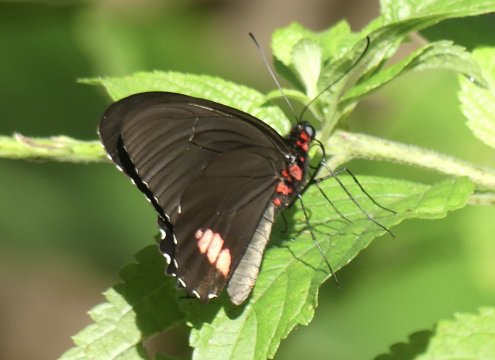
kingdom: Animalia
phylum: Arthropoda
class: Insecta
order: Lepidoptera
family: Papilionidae
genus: Parides
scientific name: Parides sesostris
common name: Emerald-patched Cattleheart
